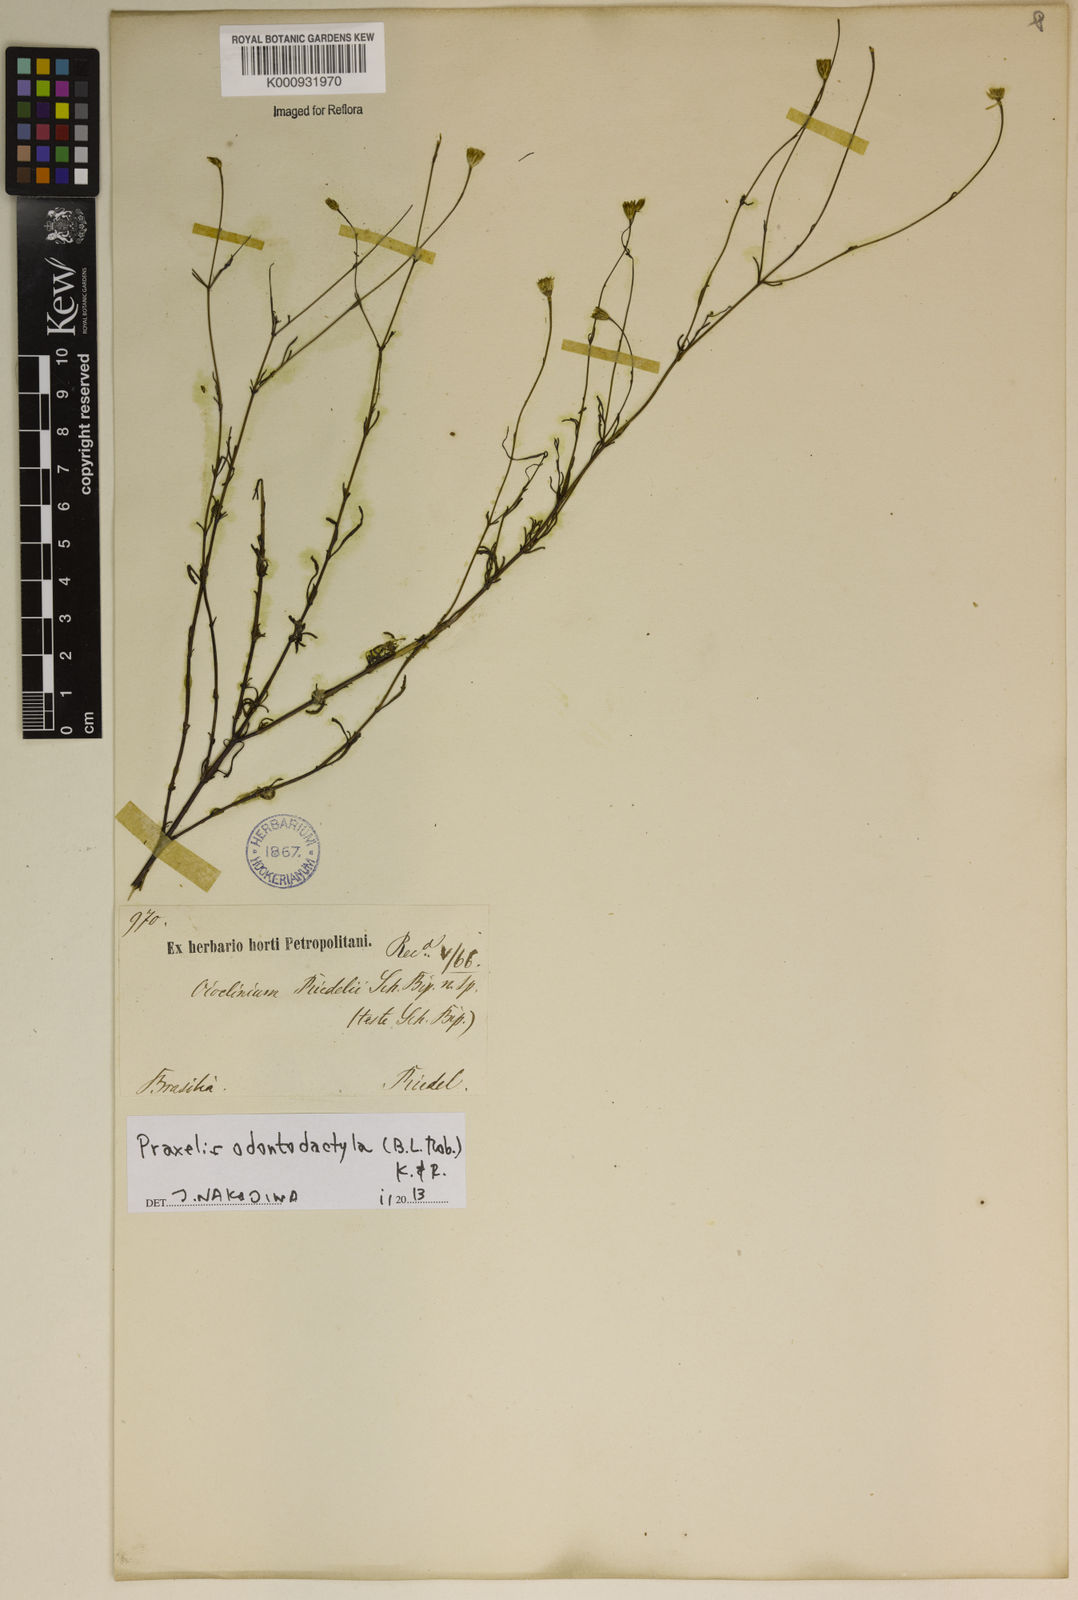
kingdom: Plantae
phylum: Tracheophyta
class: Magnoliopsida
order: Asterales
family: Asteraceae
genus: Praxelis
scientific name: Praxelis odontodactyla
